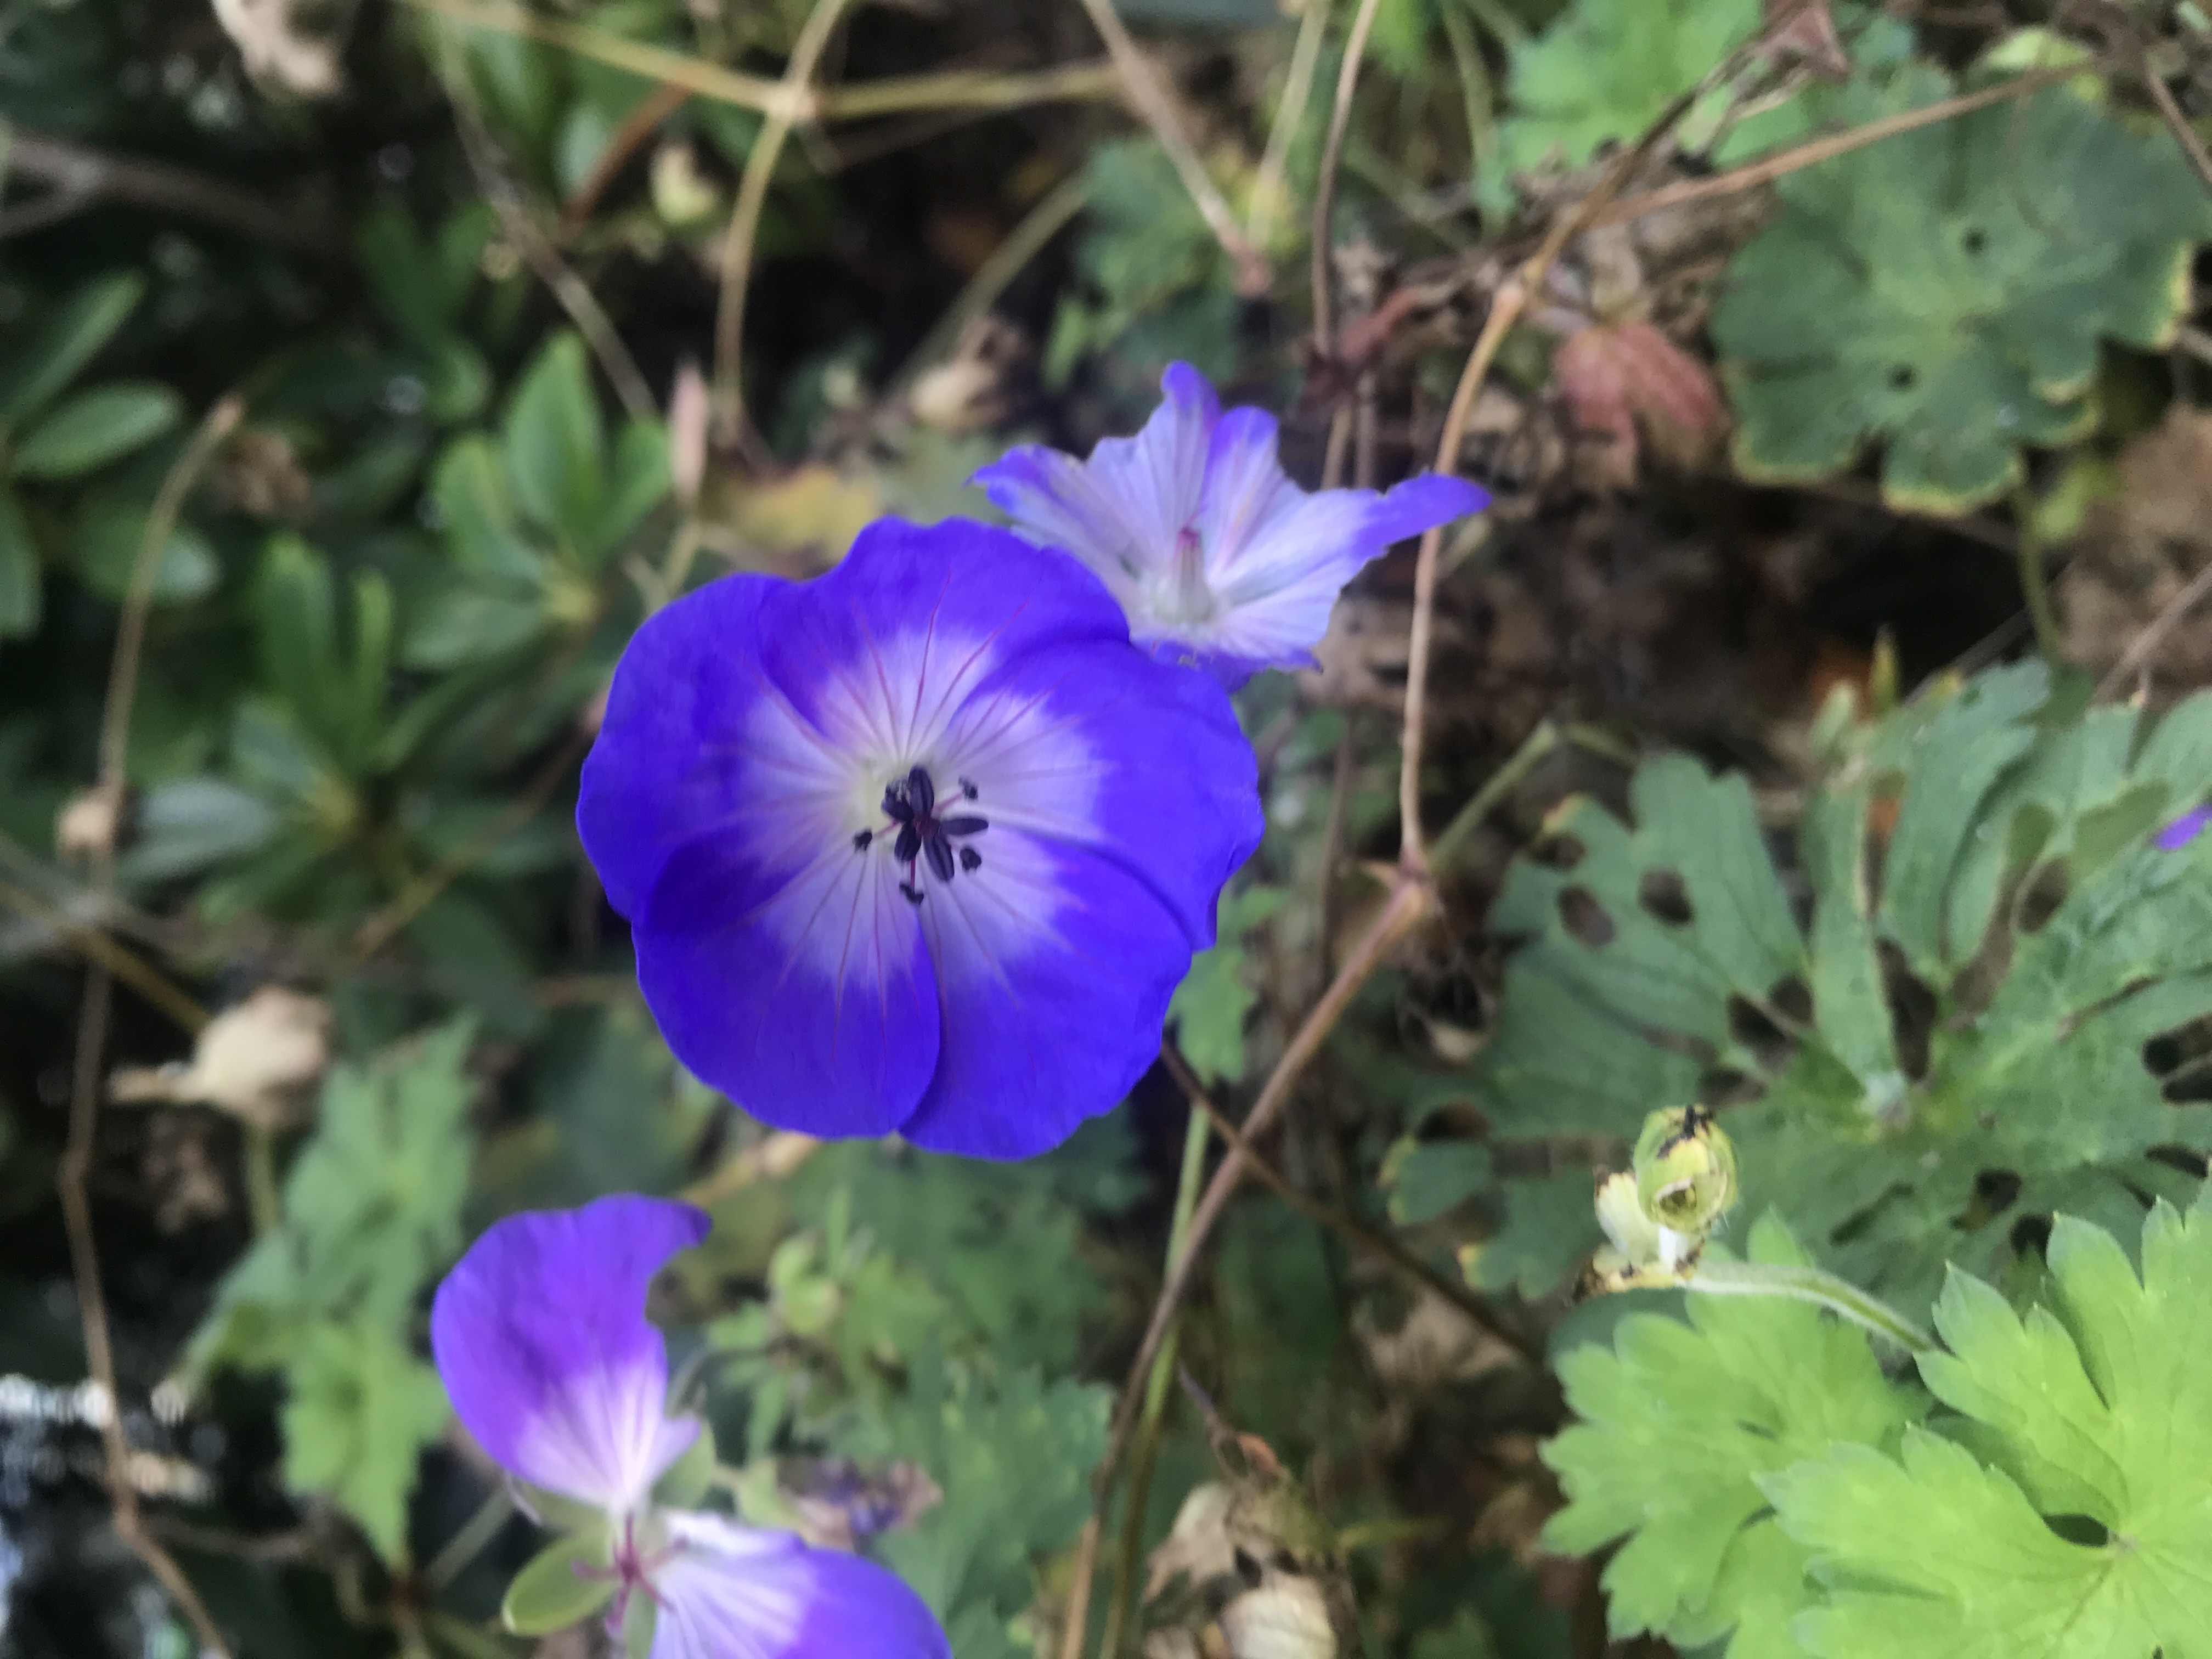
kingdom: Plantae
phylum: Tracheophyta
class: Magnoliopsida
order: Geraniales
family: Geraniaceae
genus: Geranium
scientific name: Geranium
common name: Storkenæbslægten
